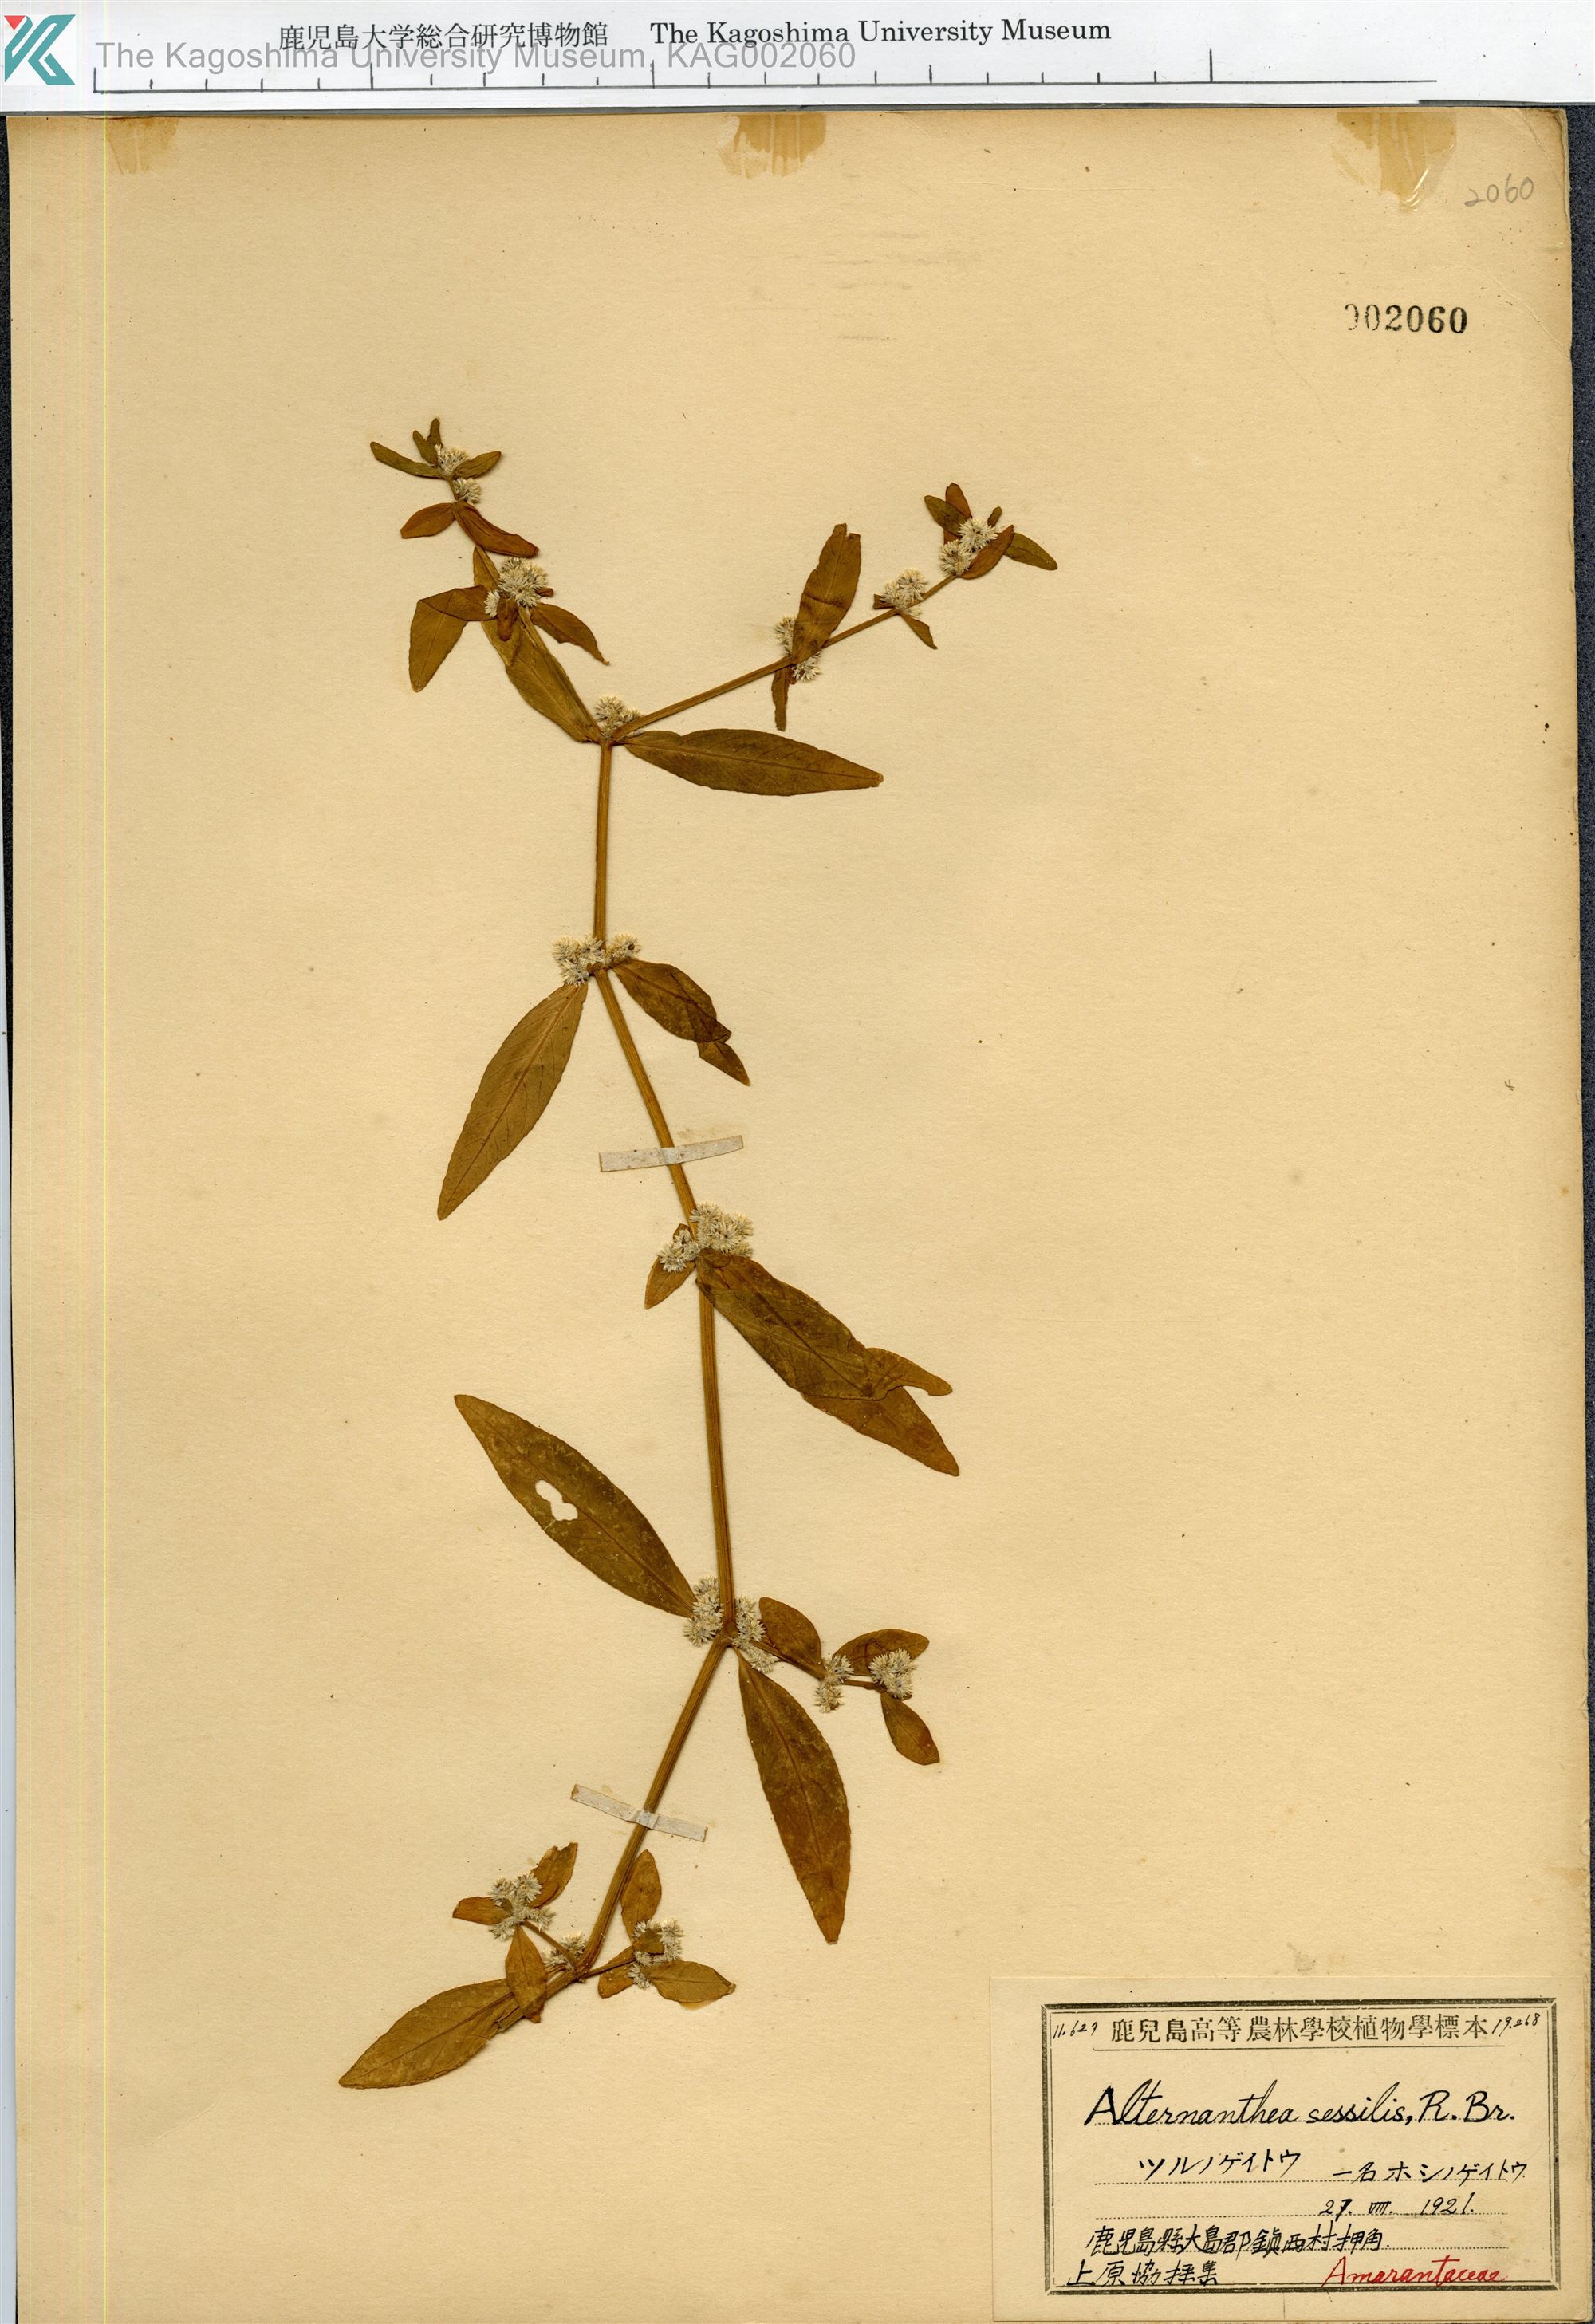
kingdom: Plantae
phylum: Tracheophyta
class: Magnoliopsida
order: Caryophyllales
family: Amaranthaceae
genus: Alternanthera
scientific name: Alternanthera sessilis
